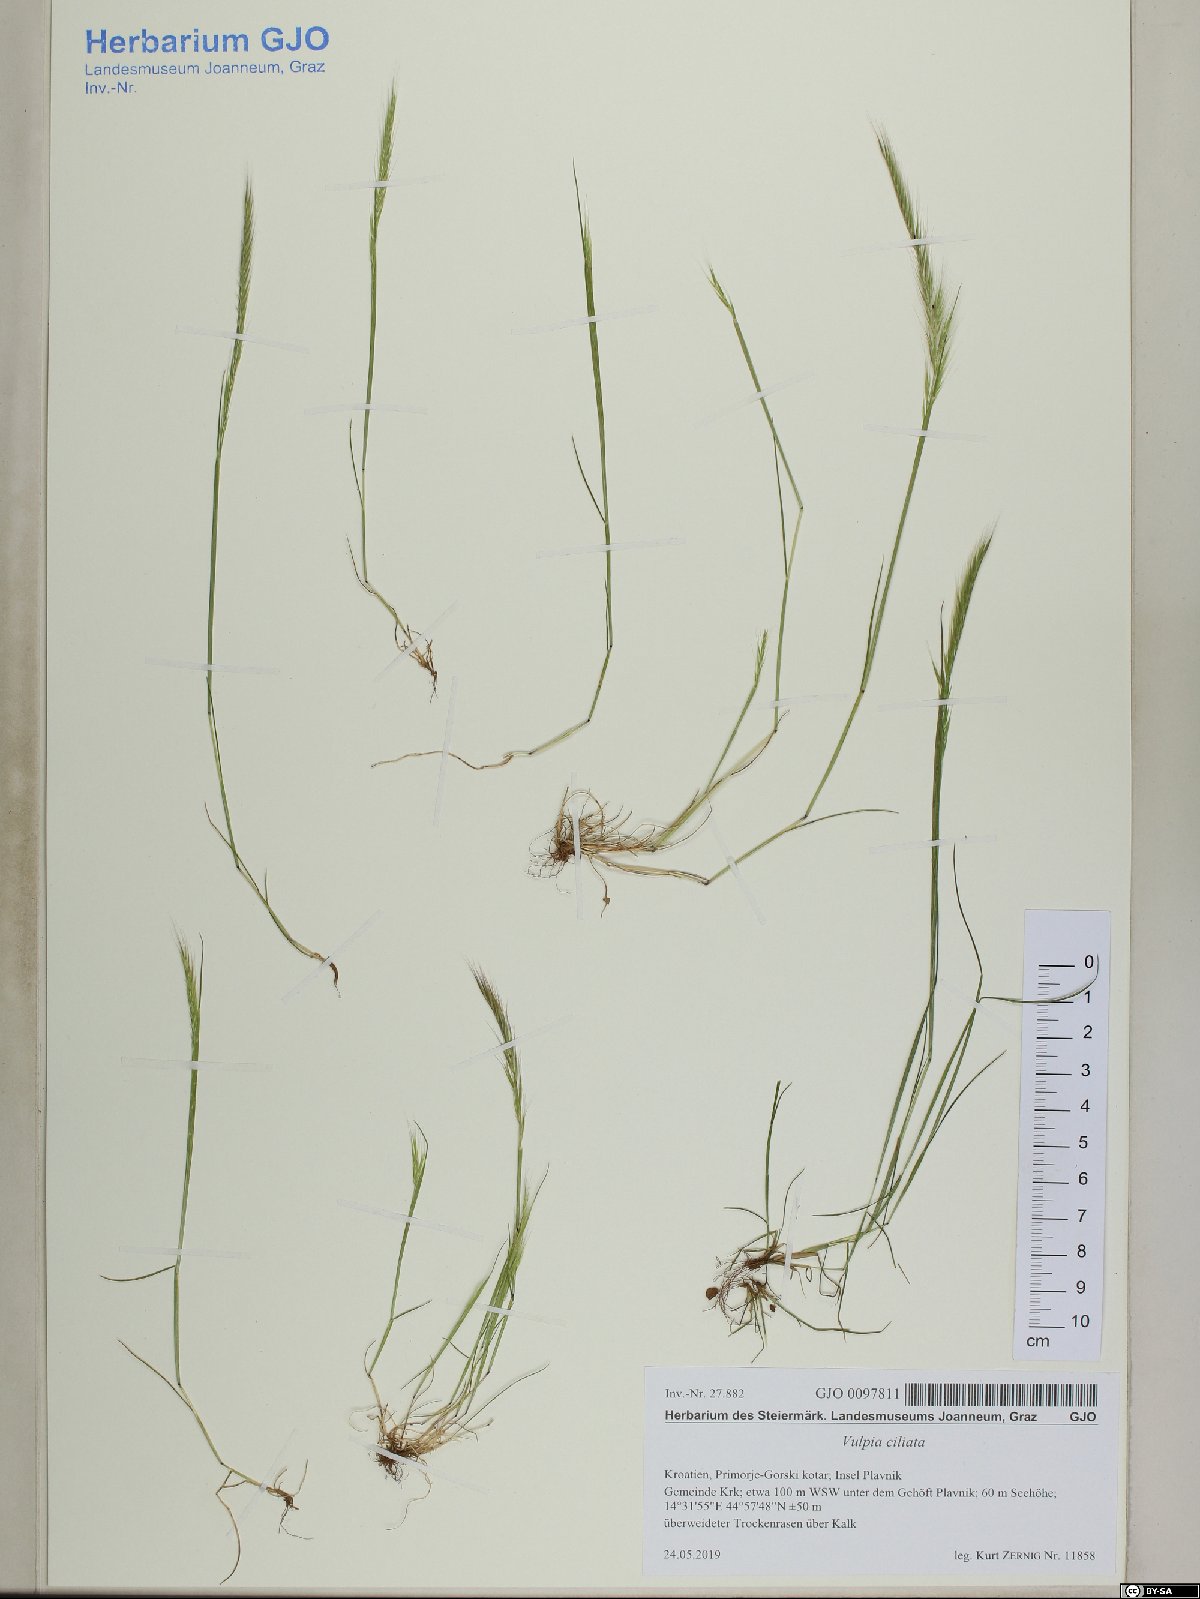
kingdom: Plantae
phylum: Tracheophyta
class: Liliopsida
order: Poales
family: Poaceae
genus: Festuca
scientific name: Festuca ambigua
